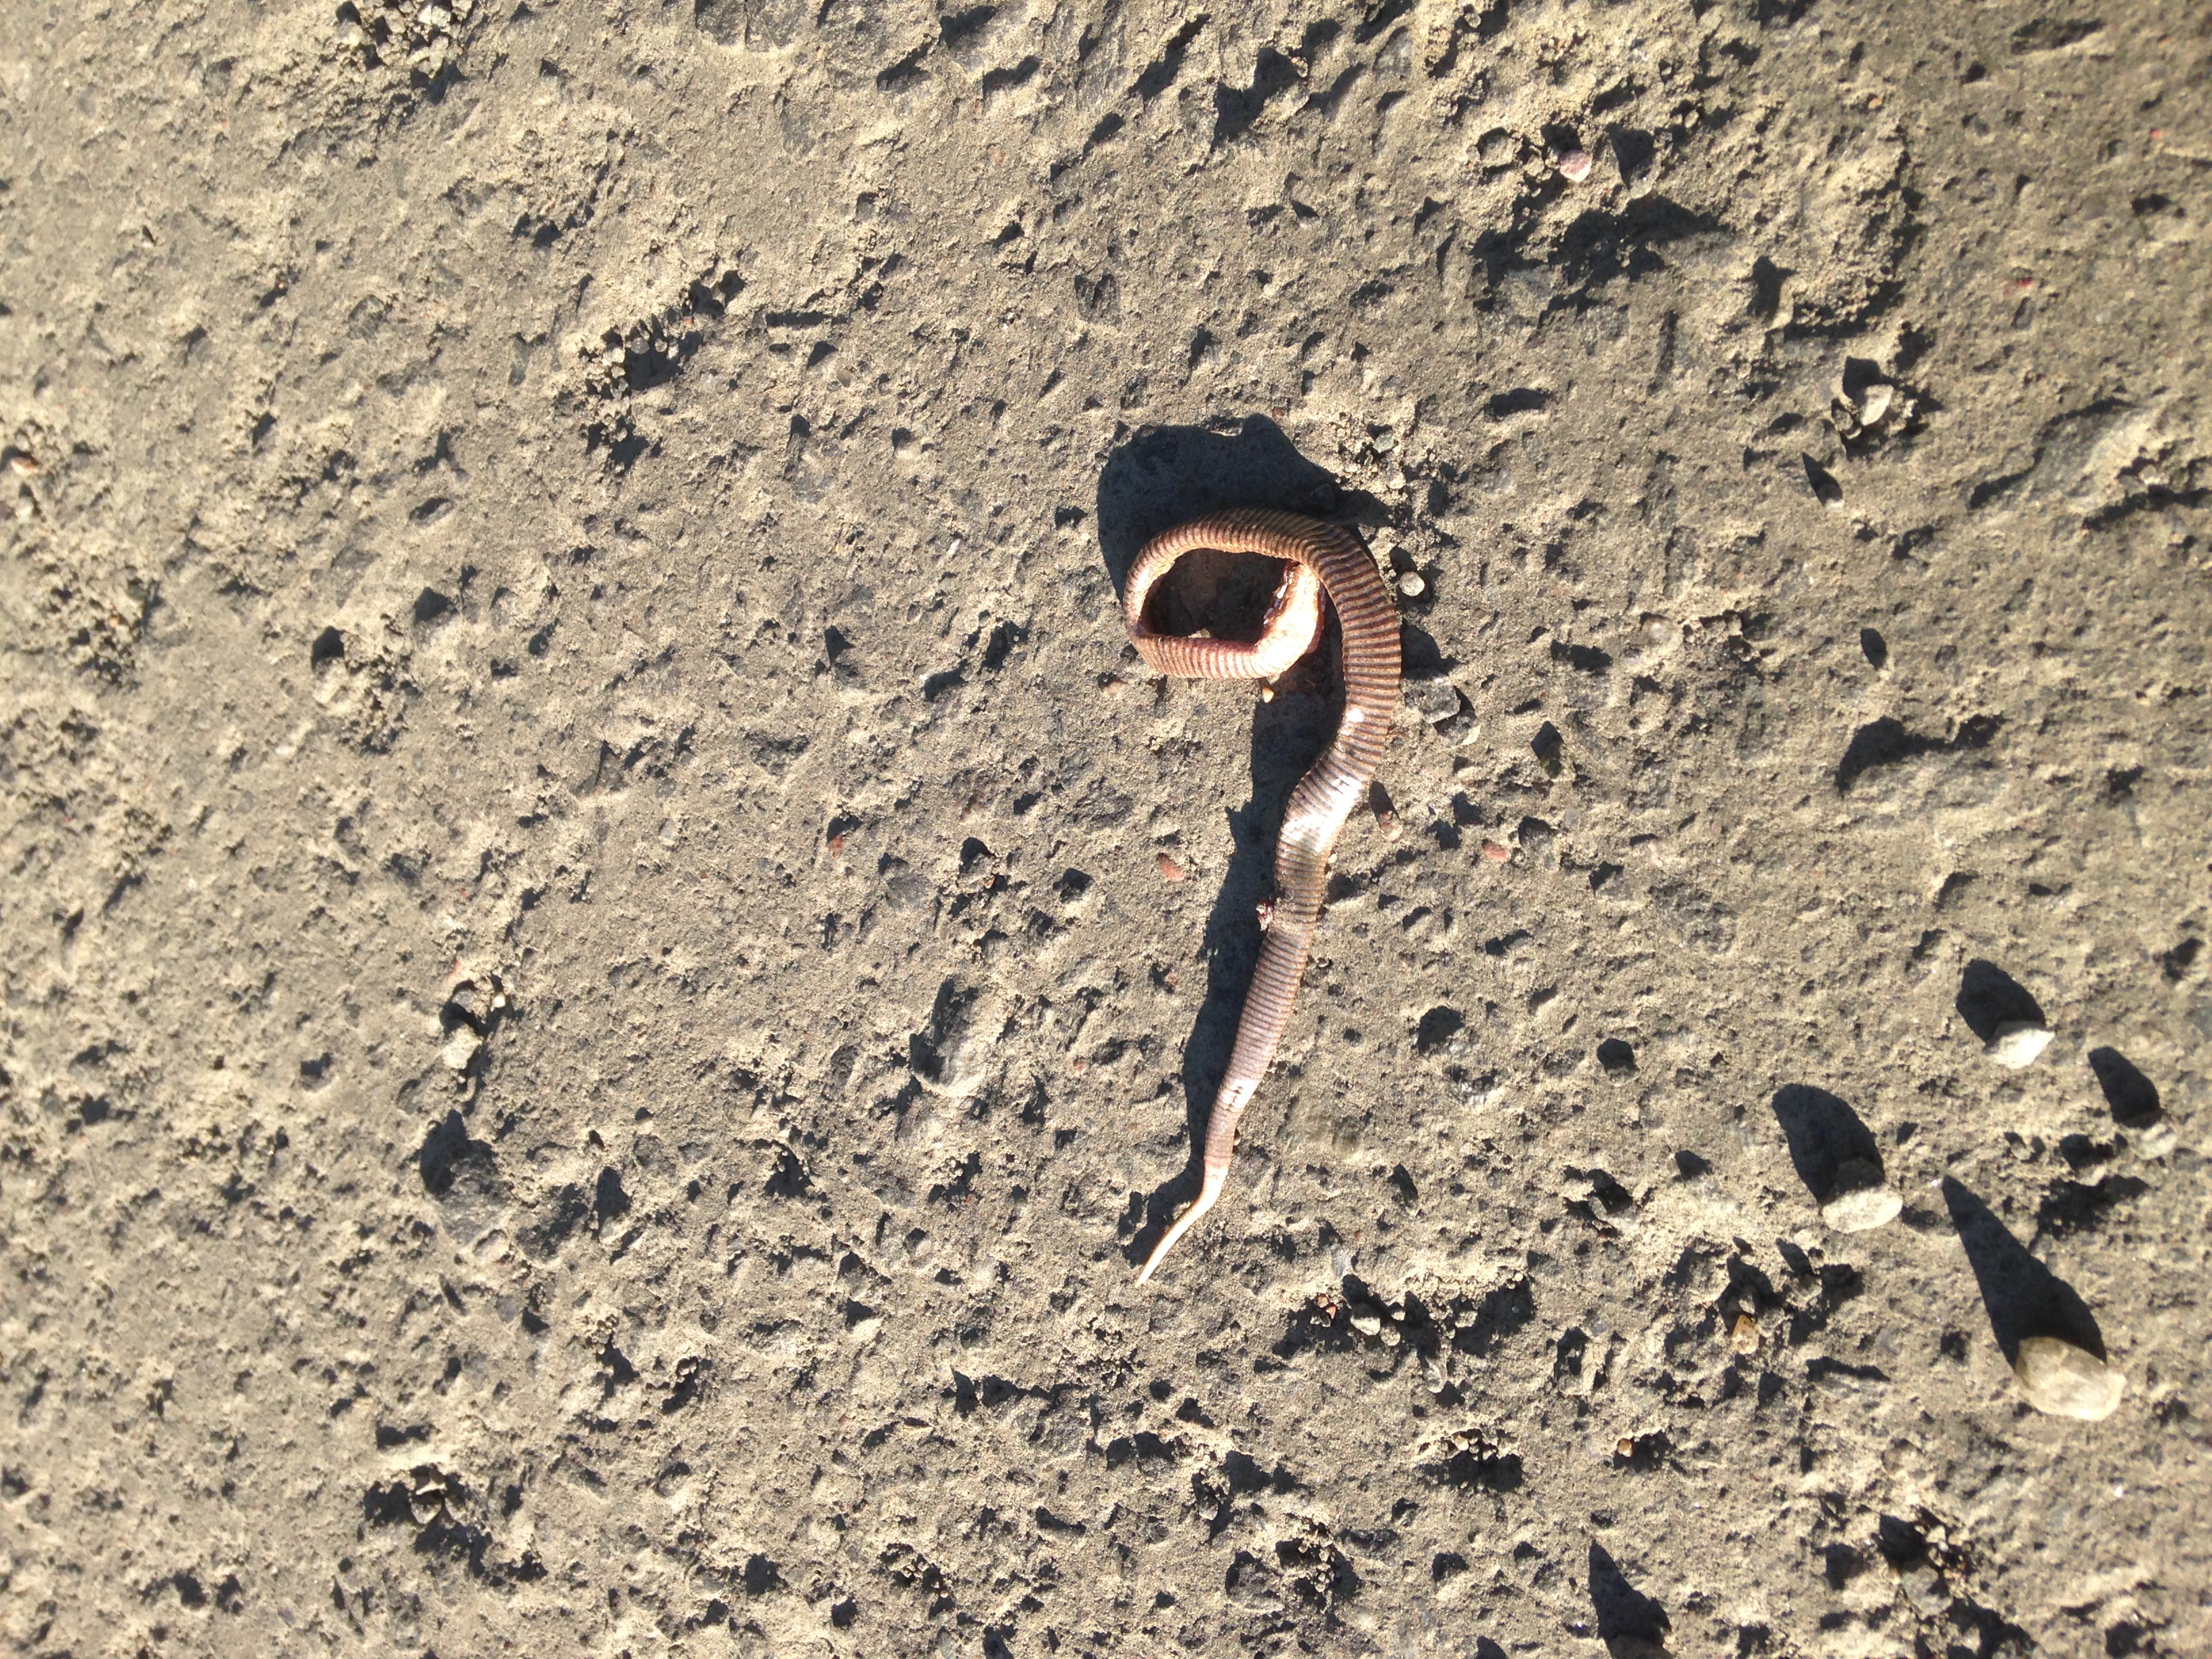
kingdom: Animalia
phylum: Chordata
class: Squamata
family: Anguidae
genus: Anguis
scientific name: Anguis colchica
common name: Slow worm
